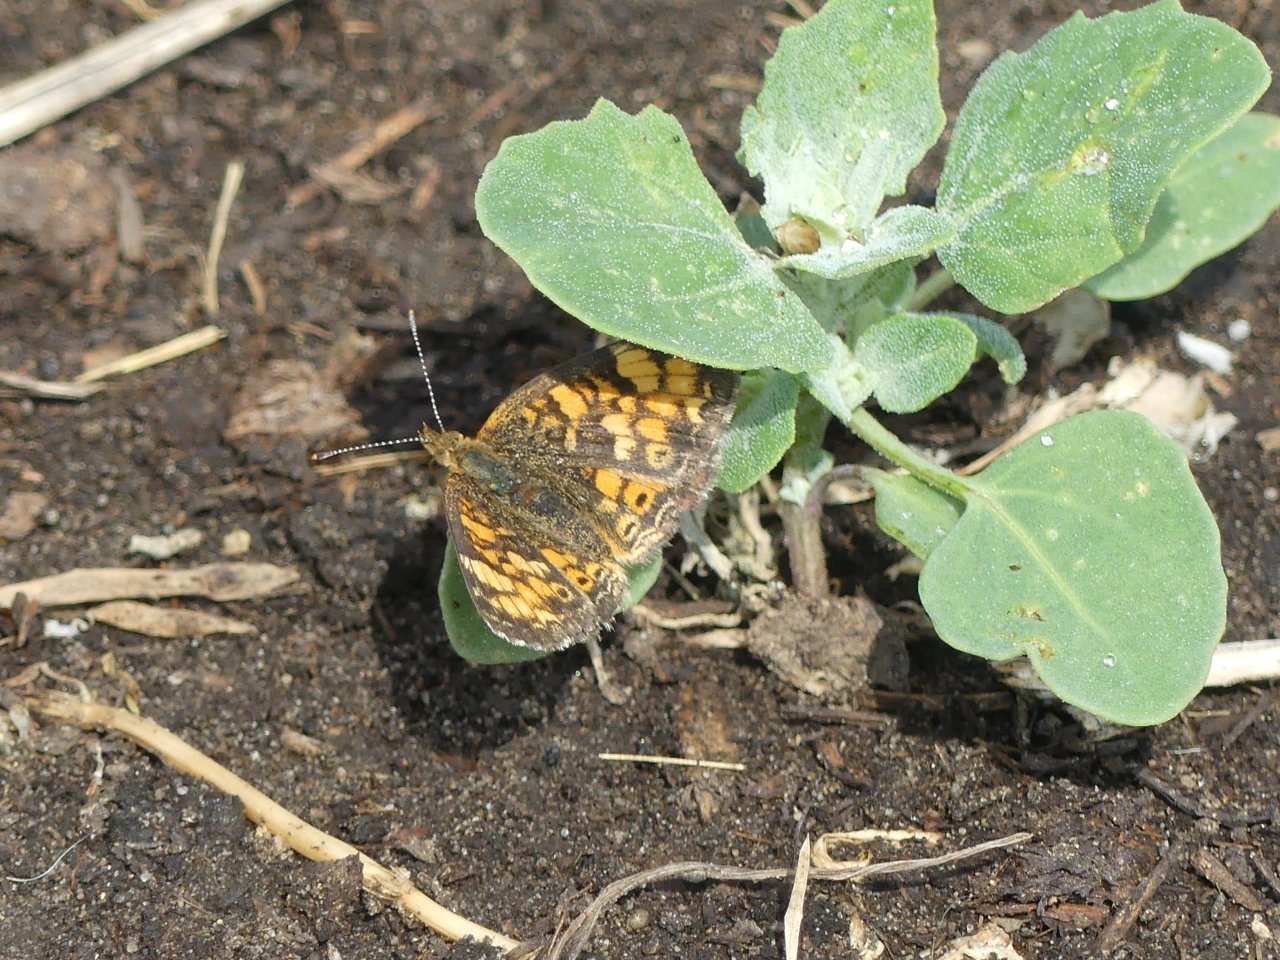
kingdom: Animalia
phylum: Arthropoda
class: Insecta
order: Lepidoptera
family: Nymphalidae
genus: Phyciodes
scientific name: Phyciodes tharos
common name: Pearl Crescent
